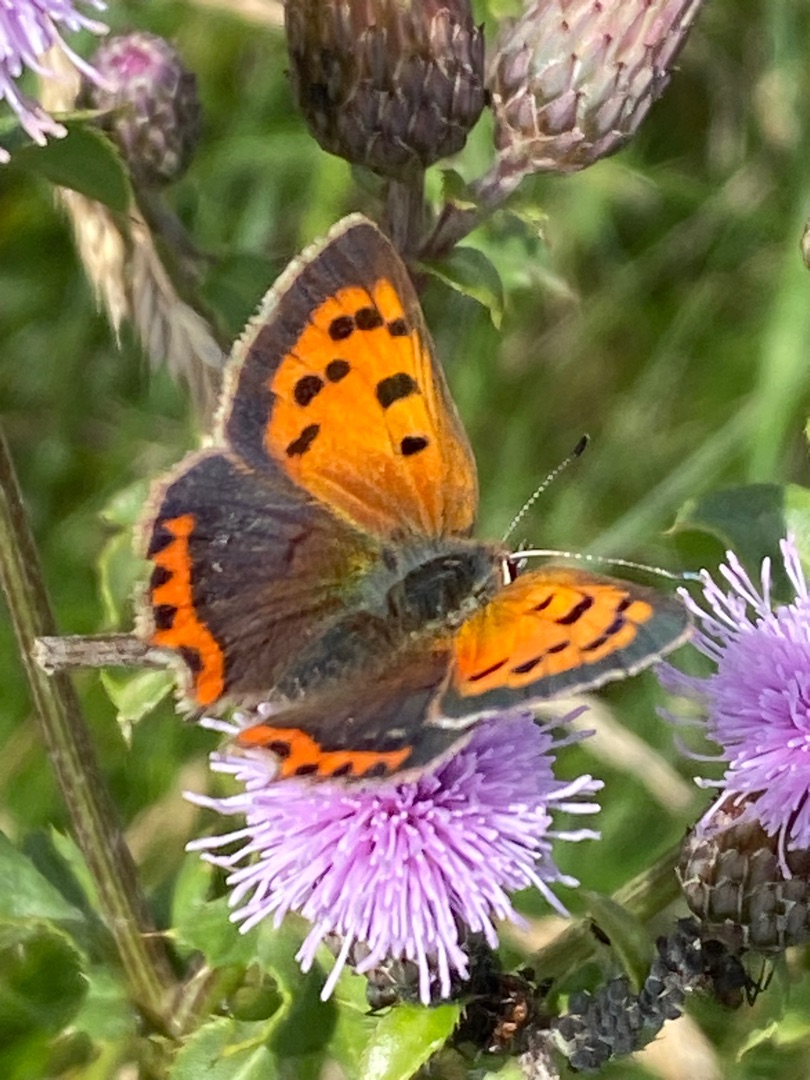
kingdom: Animalia
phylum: Arthropoda
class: Insecta
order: Lepidoptera
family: Lycaenidae
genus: Lycaena
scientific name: Lycaena phlaeas
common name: Lille ildfugl
